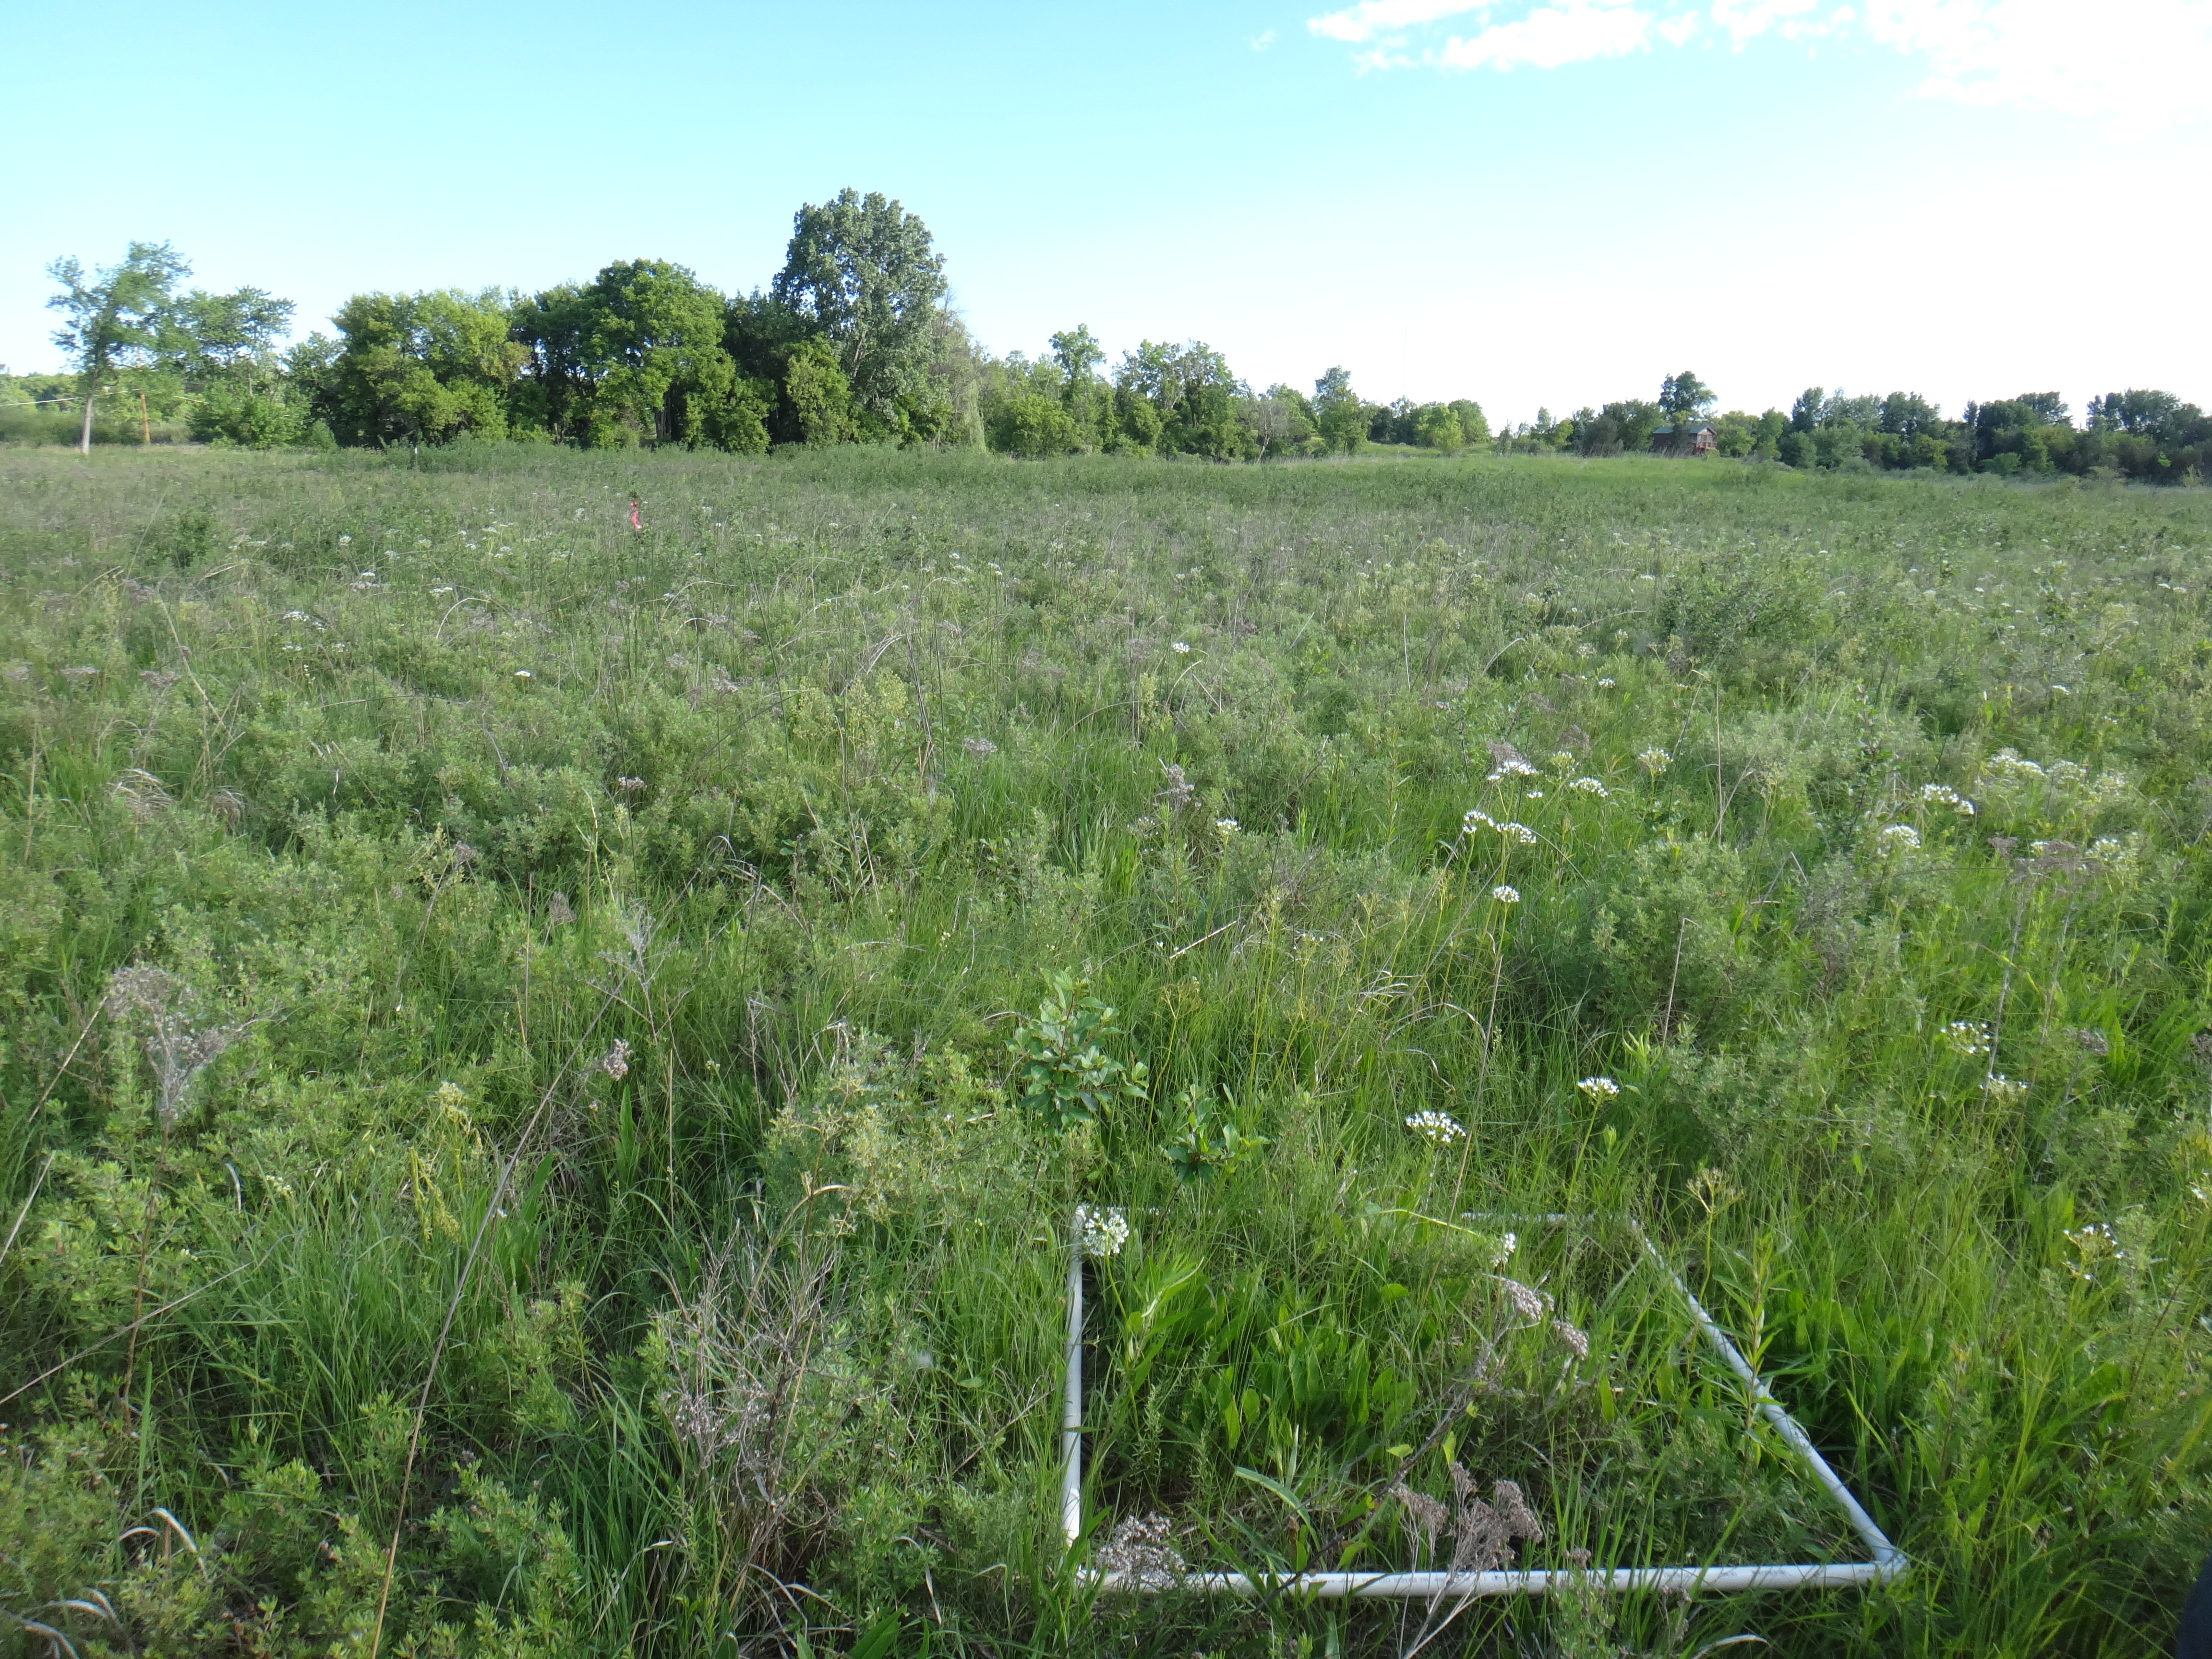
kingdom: Plantae
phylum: Tracheophyta
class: Magnoliopsida
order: Asterales
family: Asteraceae
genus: Symphyotrichum
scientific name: Symphyotrichum
